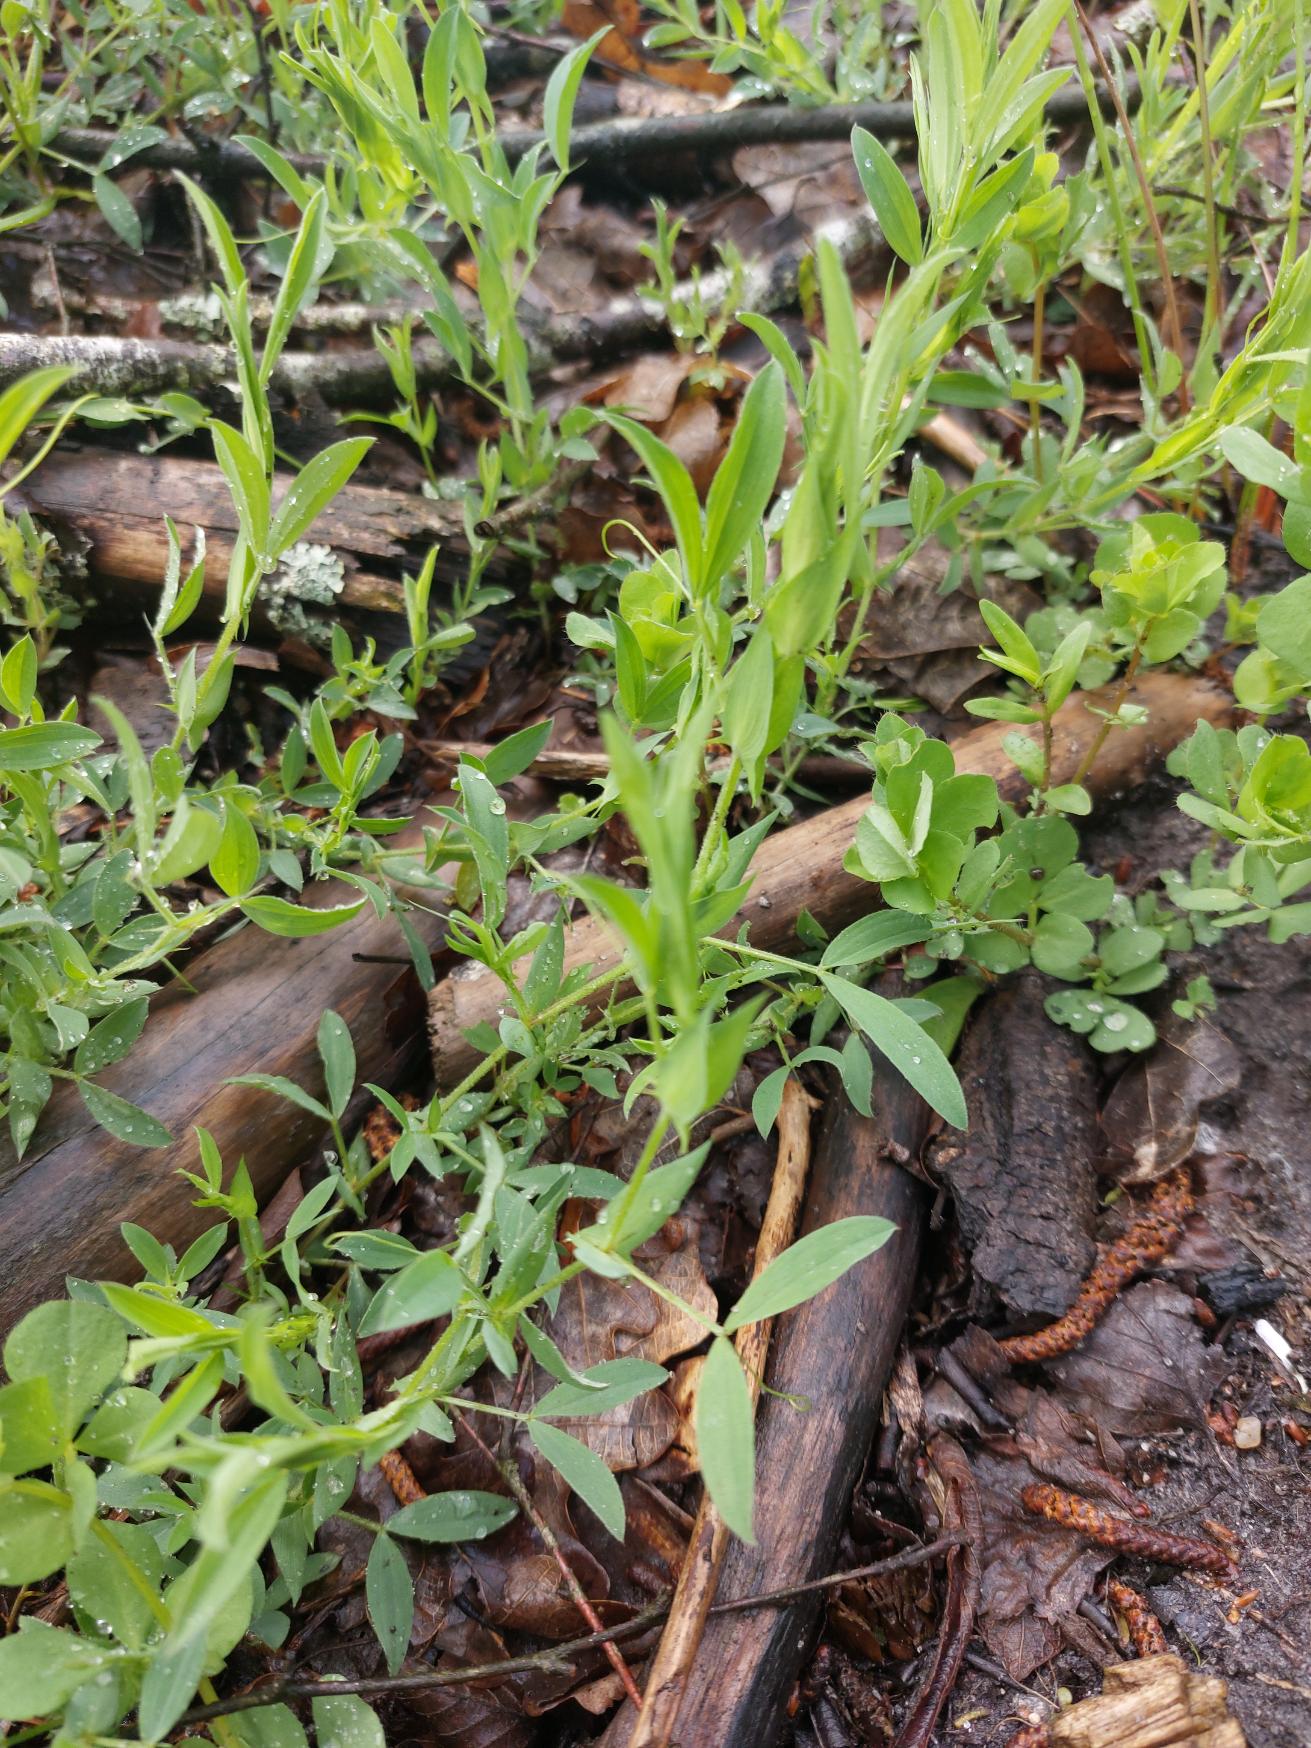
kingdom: Plantae
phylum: Tracheophyta
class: Magnoliopsida
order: Fabales
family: Fabaceae
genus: Lathyrus
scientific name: Lathyrus pratensis
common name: Gul fladbælg
